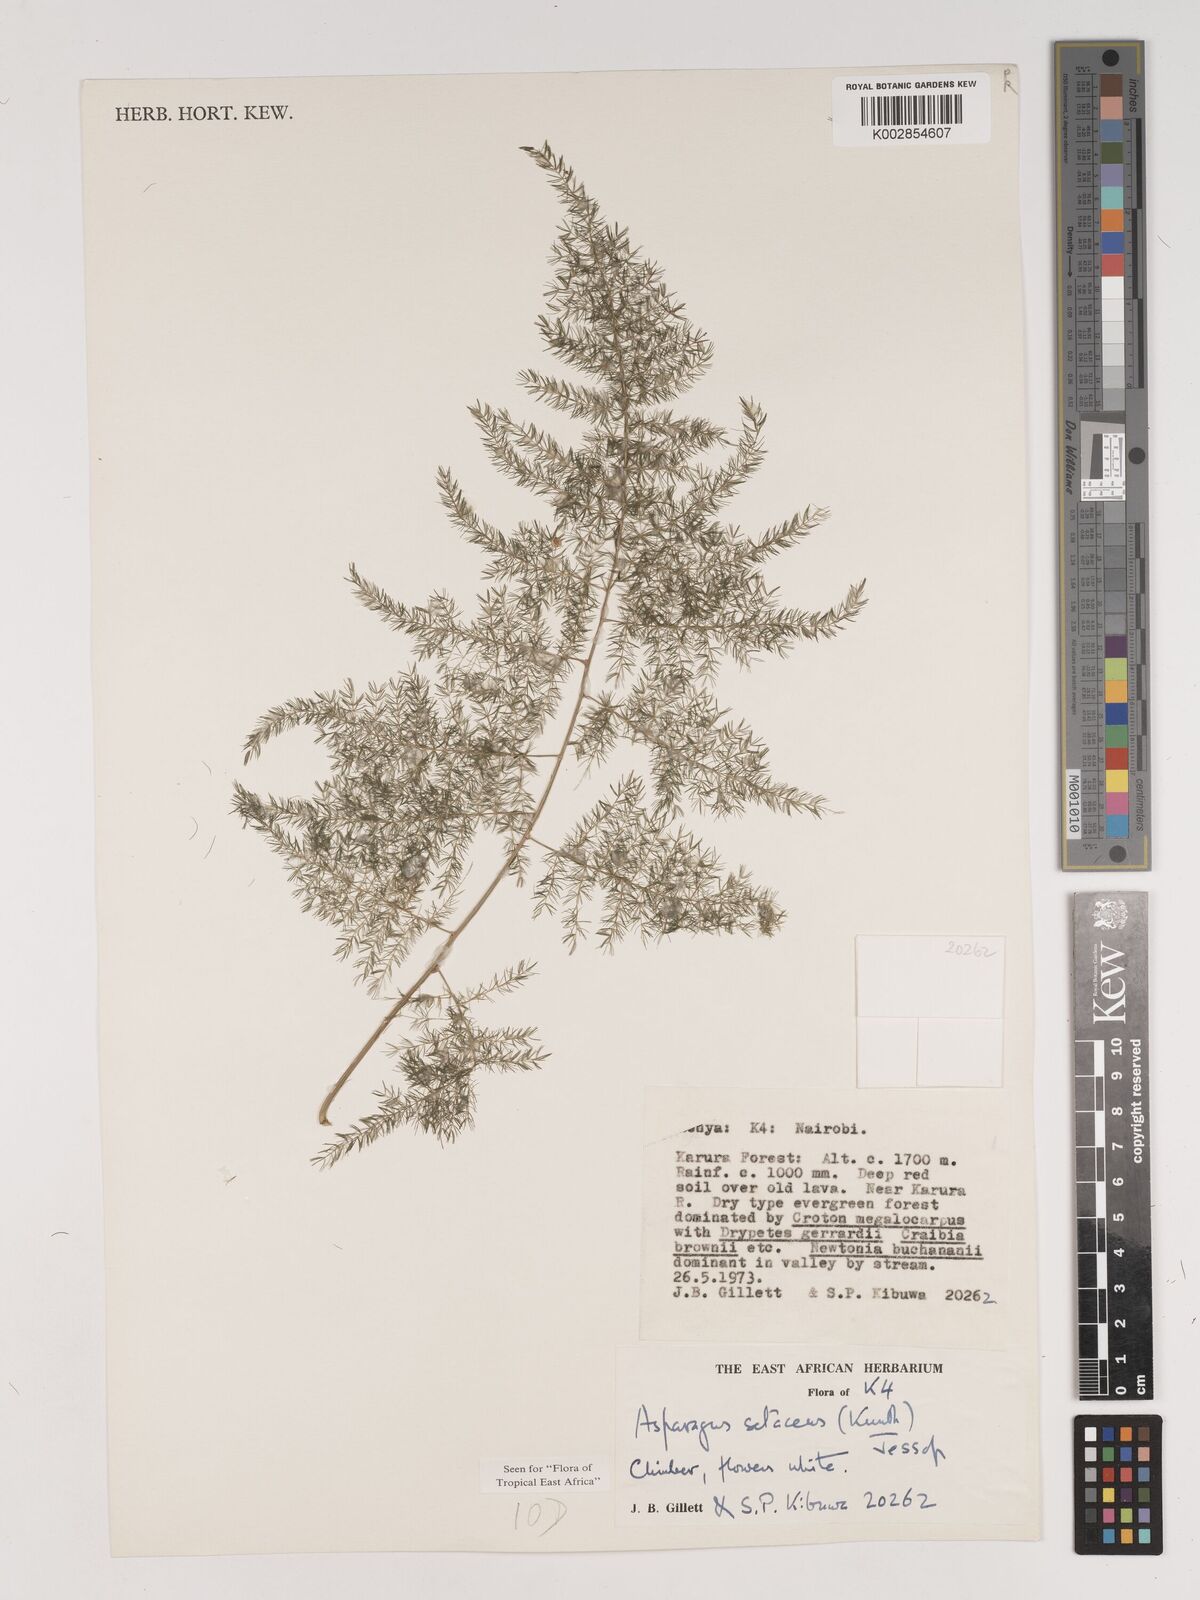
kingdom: Plantae
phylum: Tracheophyta
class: Liliopsida
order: Asparagales
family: Asparagaceae
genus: Asparagus
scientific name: Asparagus setaceus
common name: Common asparagus fern
